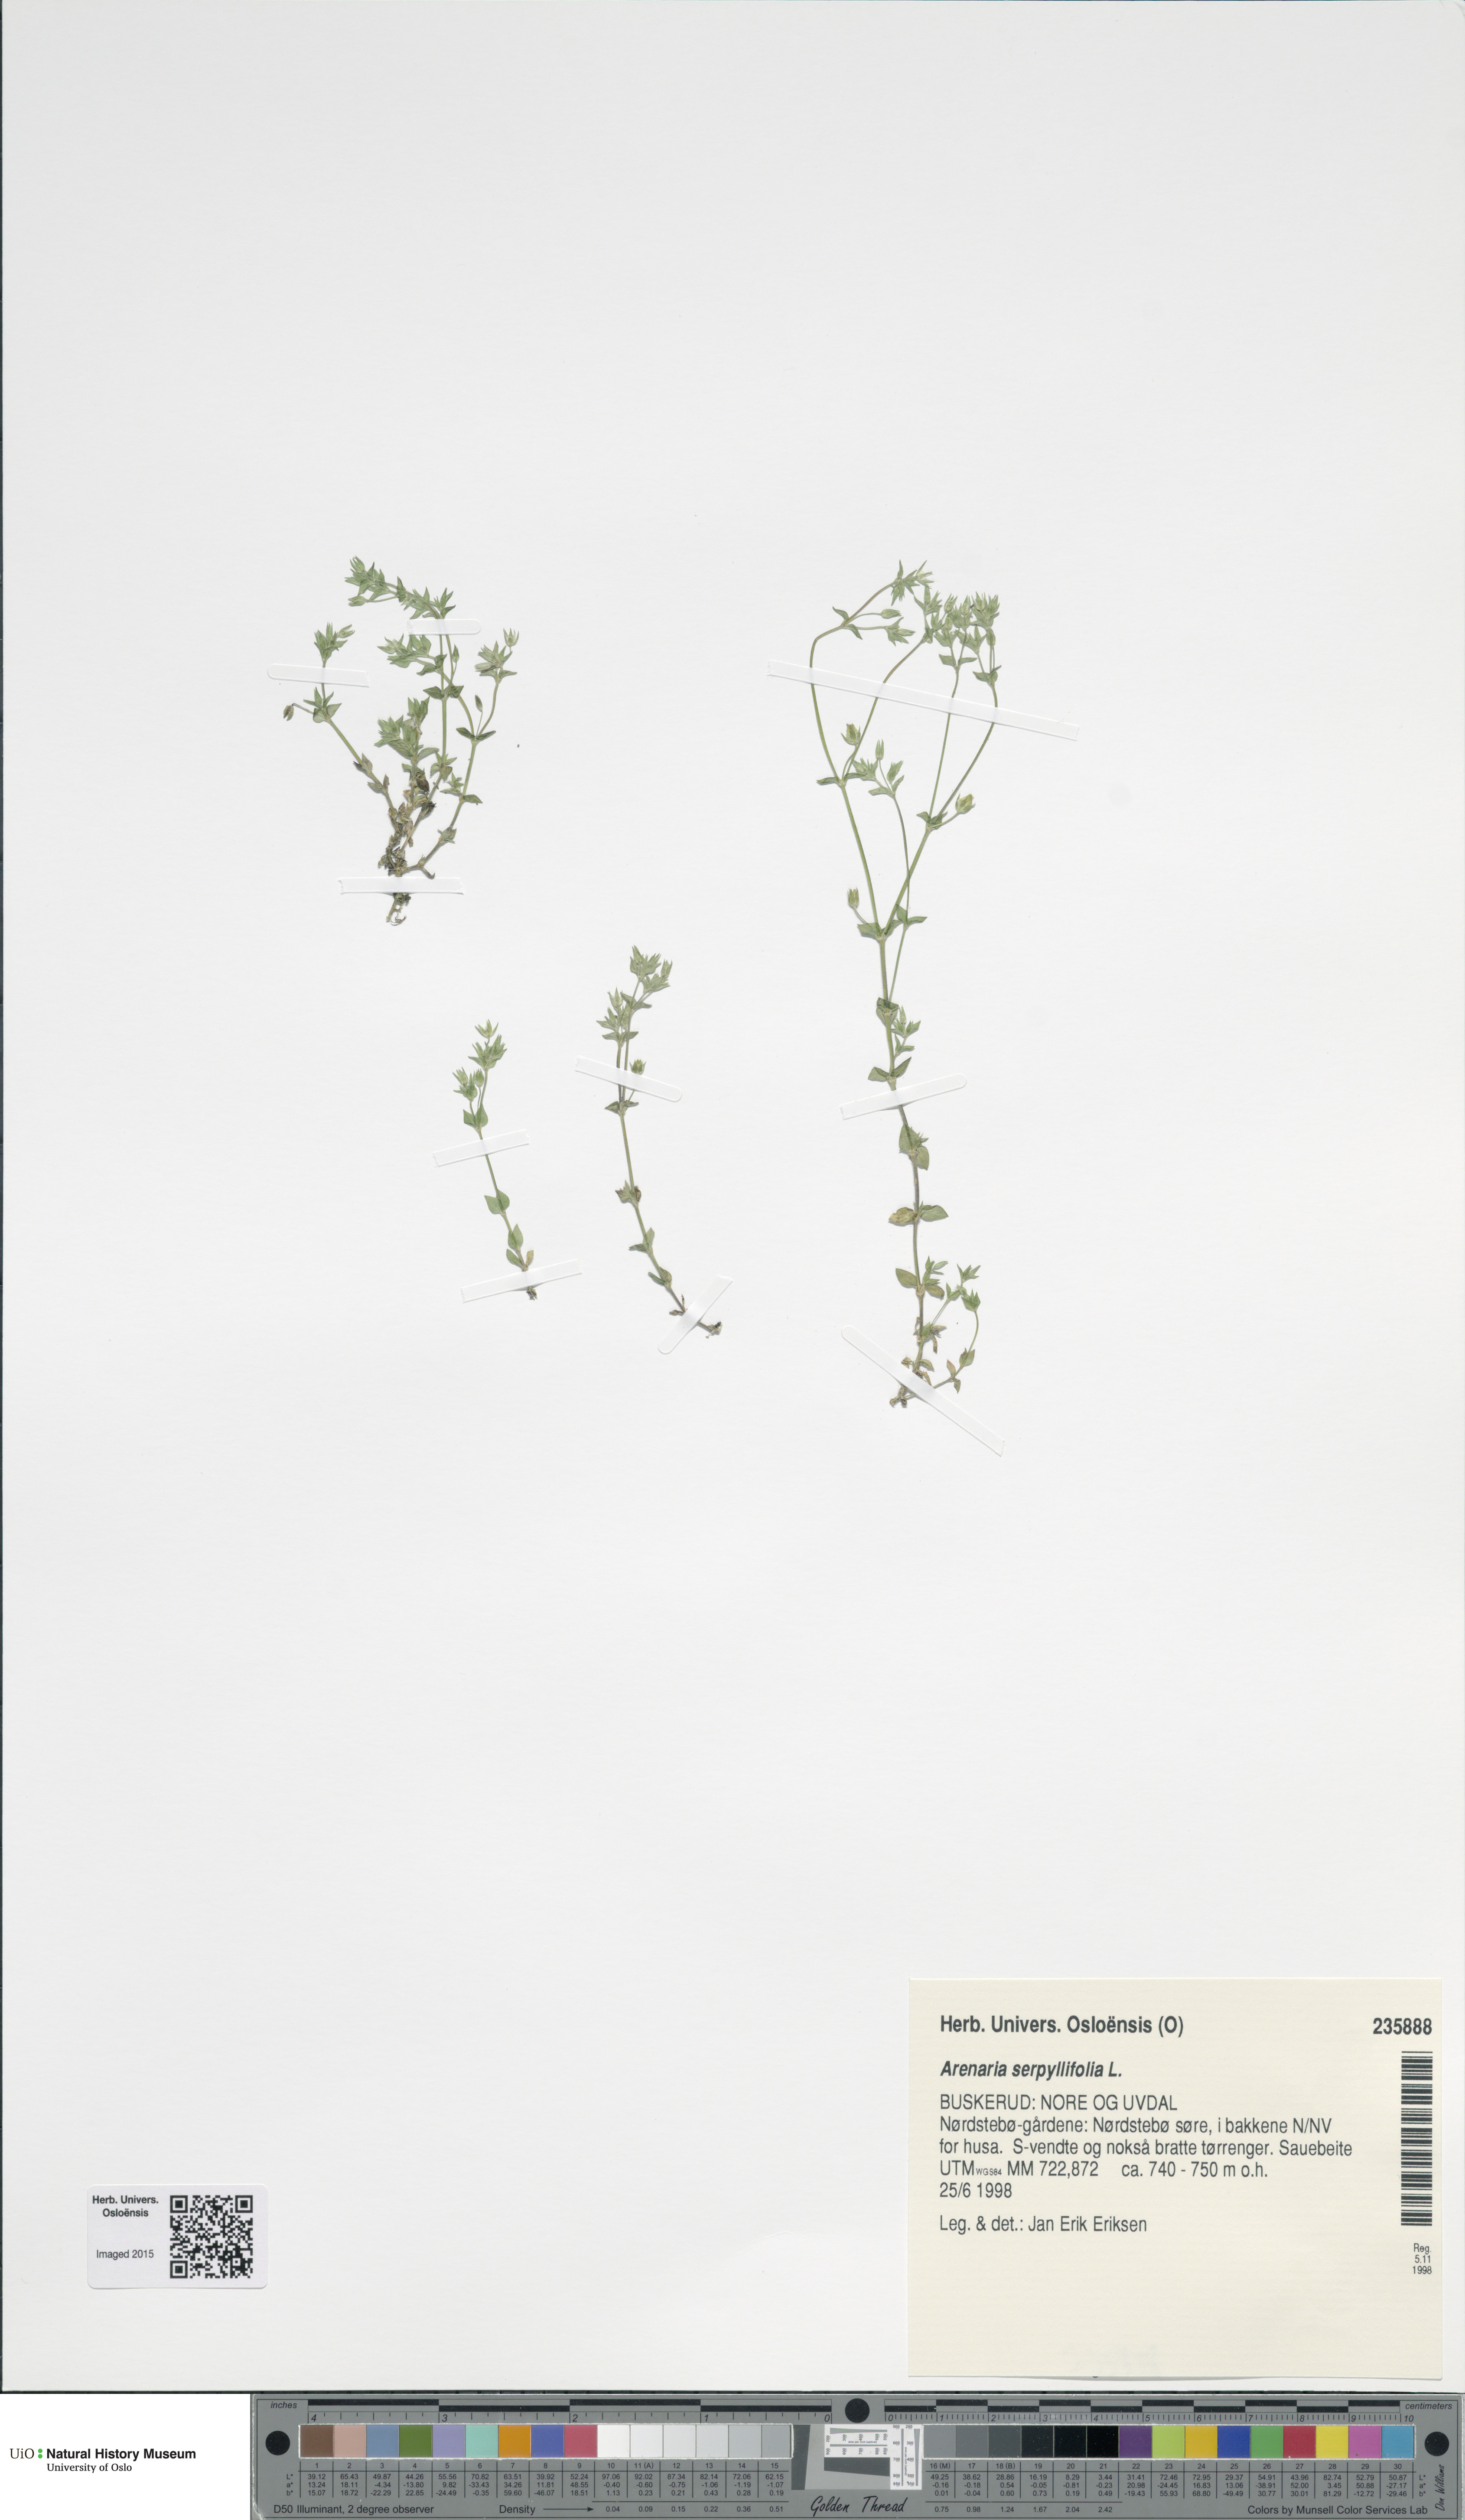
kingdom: Plantae
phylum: Tracheophyta
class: Magnoliopsida
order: Caryophyllales
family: Caryophyllaceae
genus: Arenaria
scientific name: Arenaria serpyllifolia
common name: Thyme-leaved sandwort
